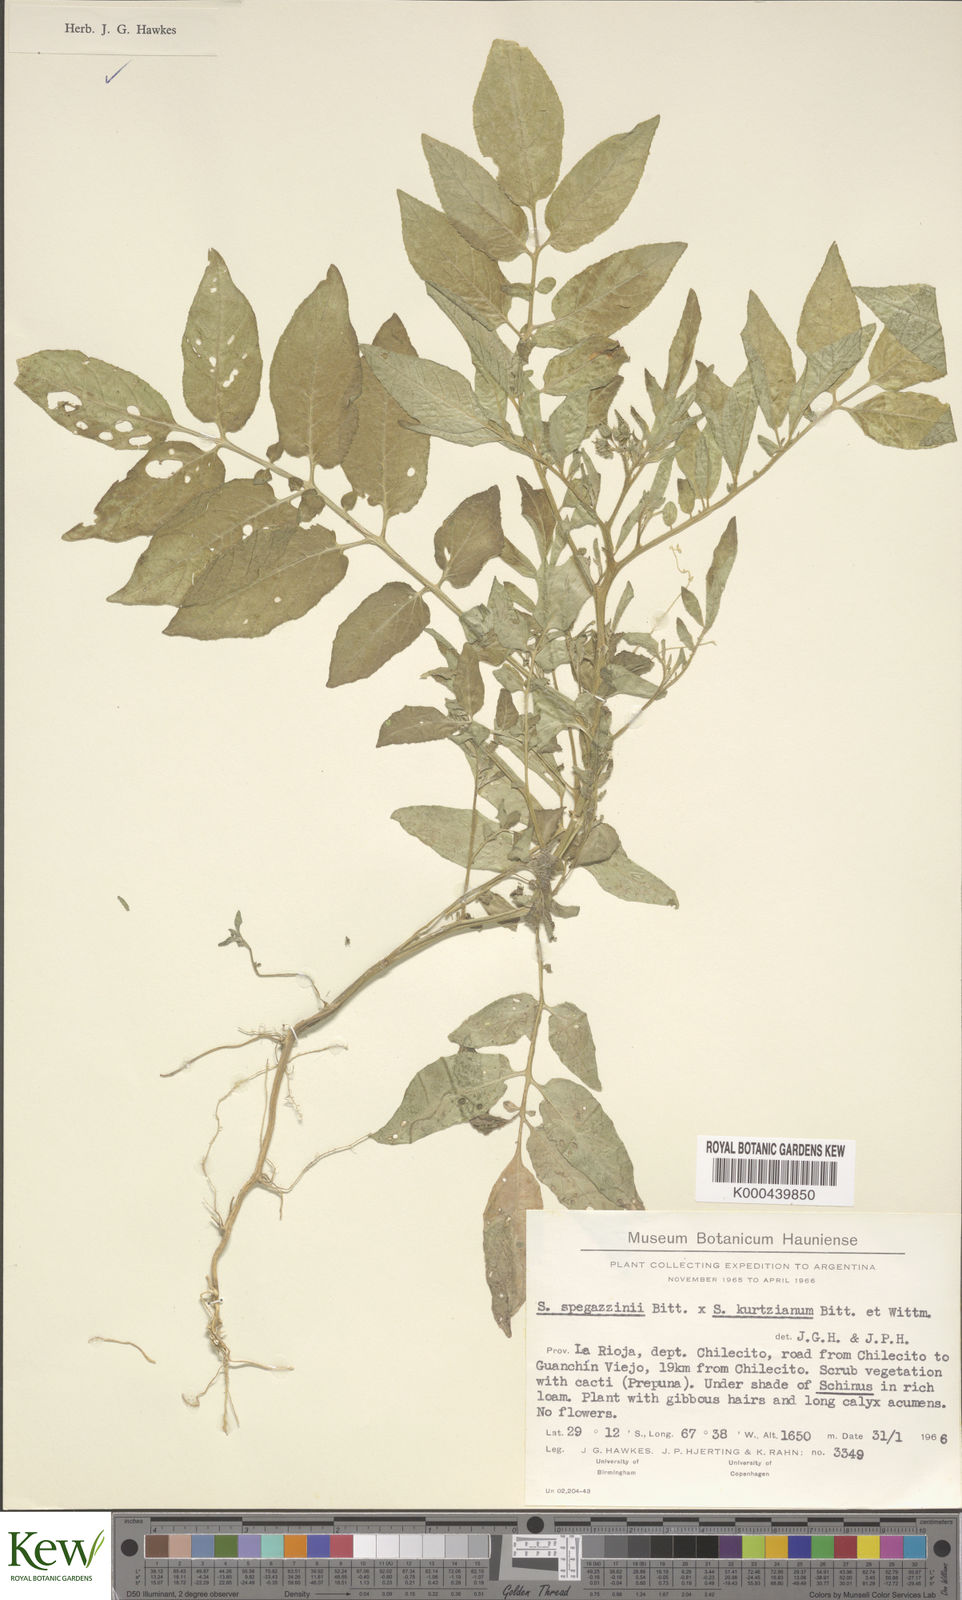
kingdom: Plantae
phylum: Tracheophyta
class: Magnoliopsida
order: Solanales
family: Solanaceae
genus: Solanum
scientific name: Solanum brevicaule
